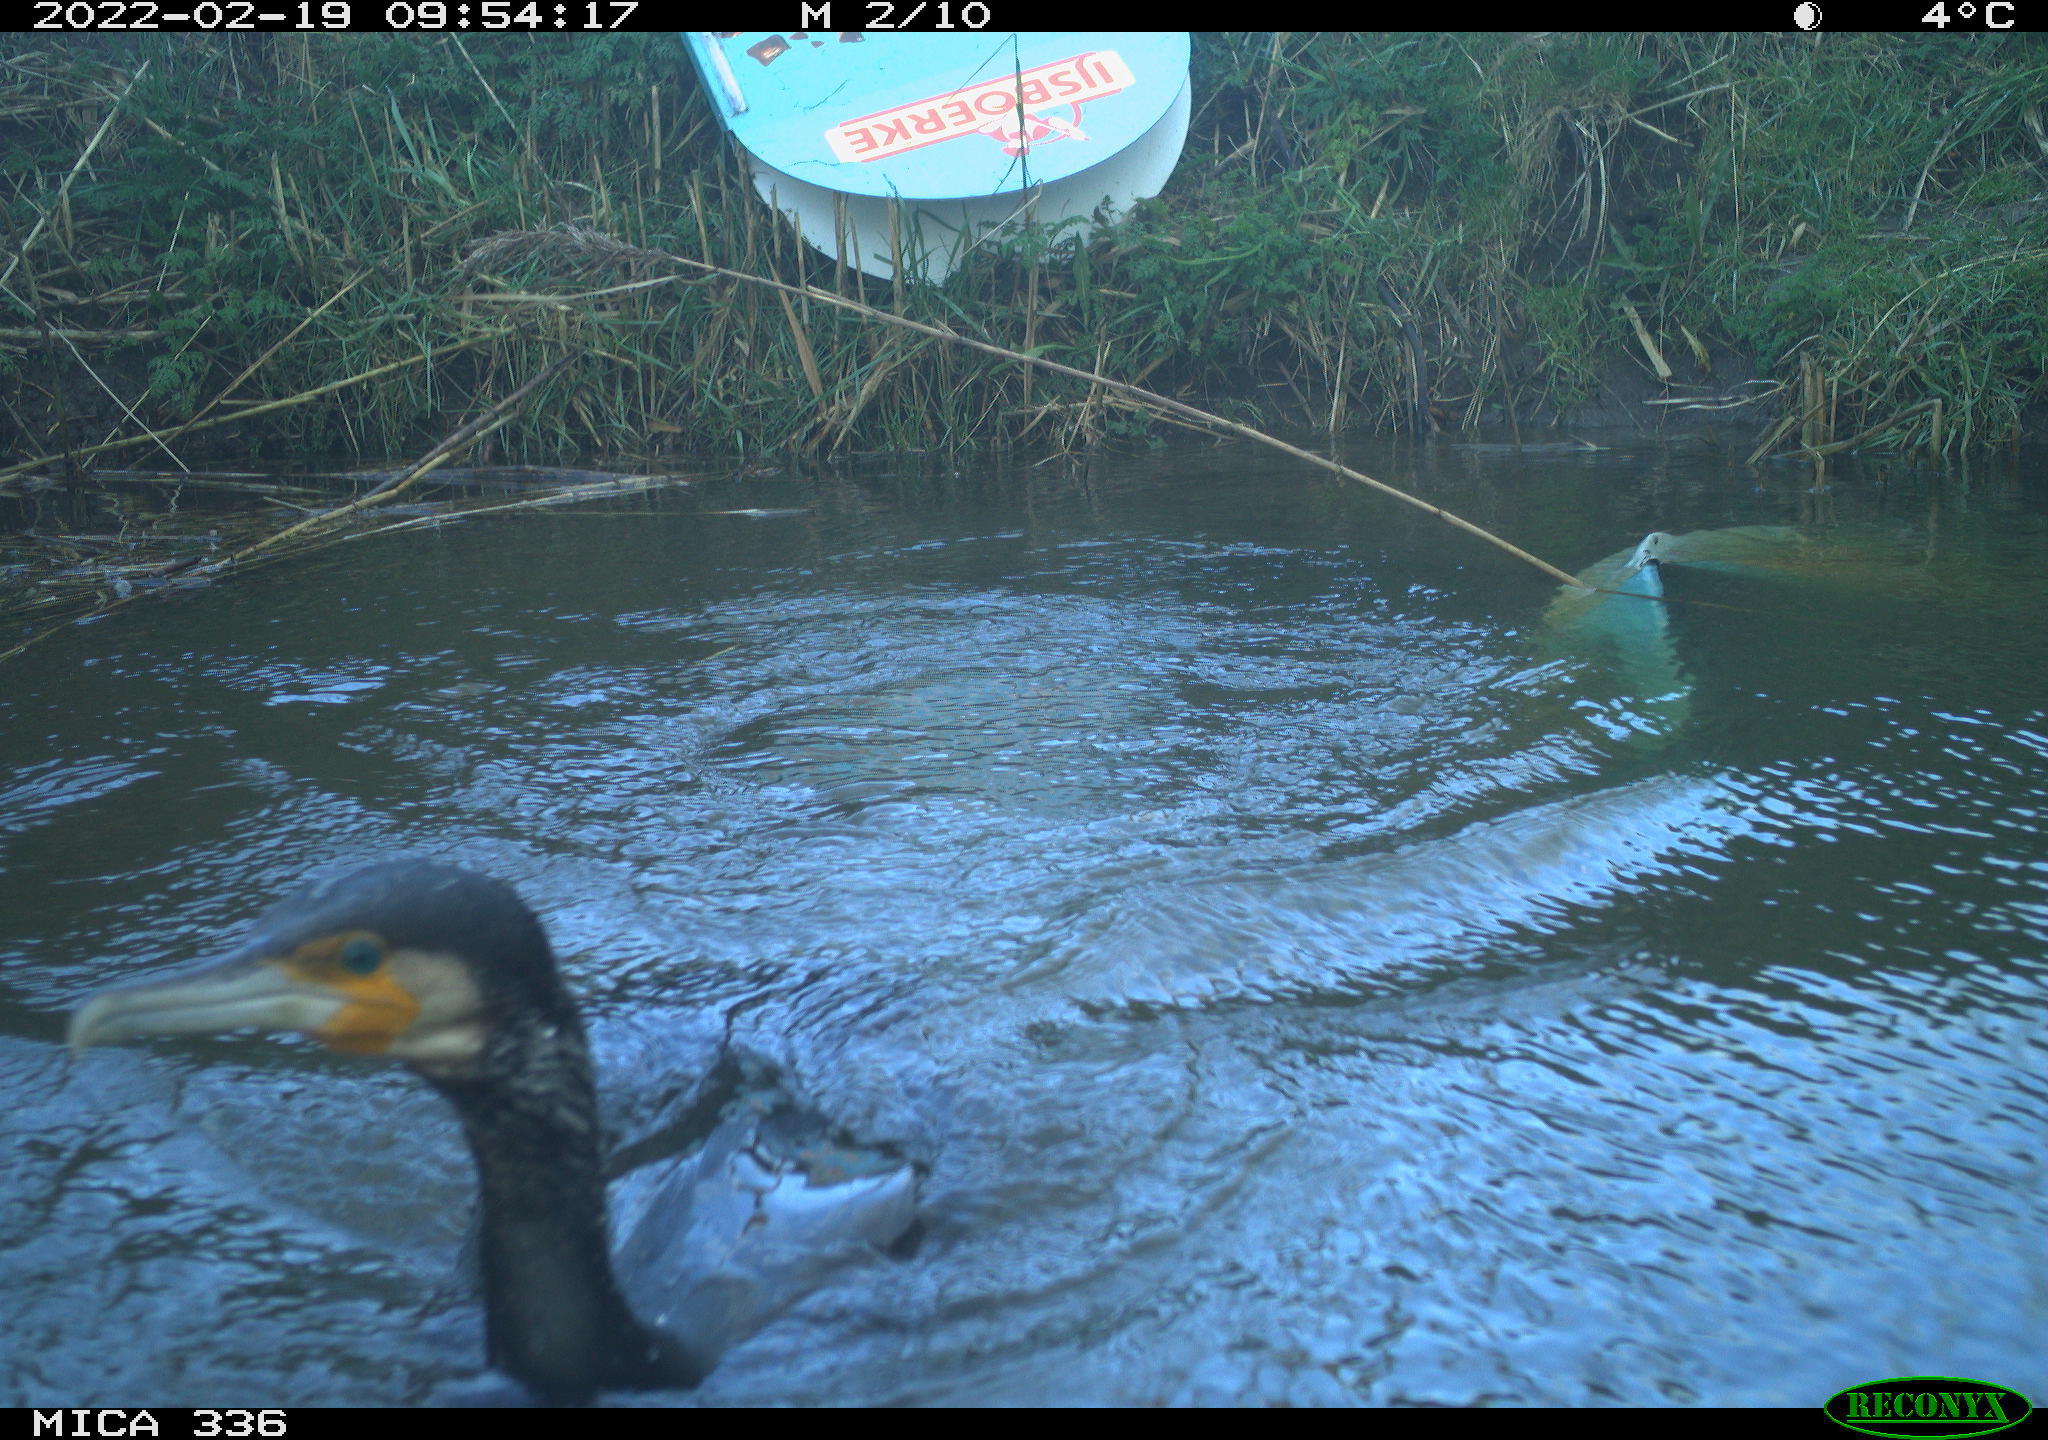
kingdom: Animalia
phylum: Chordata
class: Aves
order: Suliformes
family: Phalacrocoracidae
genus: Phalacrocorax
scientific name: Phalacrocorax carbo
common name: Great cormorant
